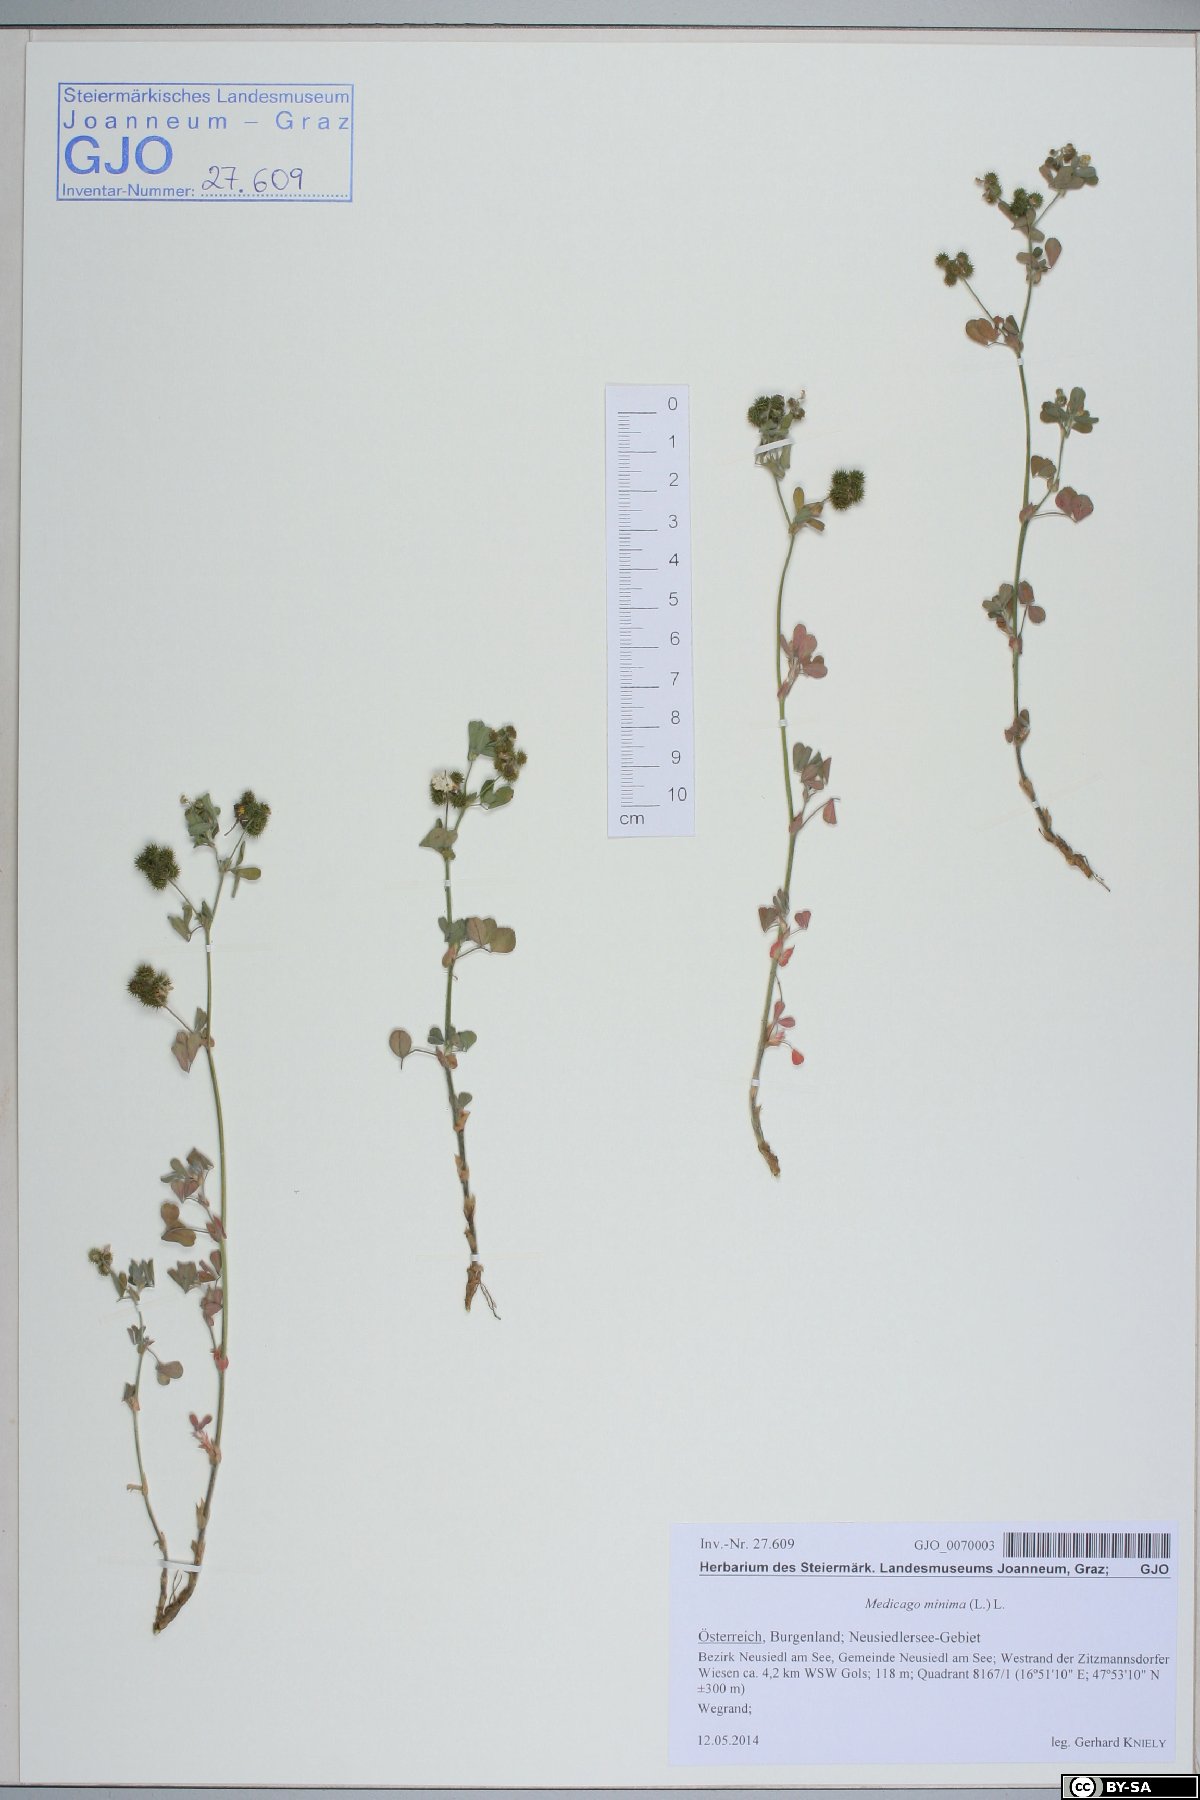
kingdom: Plantae
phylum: Tracheophyta
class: Magnoliopsida
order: Fabales
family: Fabaceae
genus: Medicago
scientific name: Medicago minima
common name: Little bur-clover
